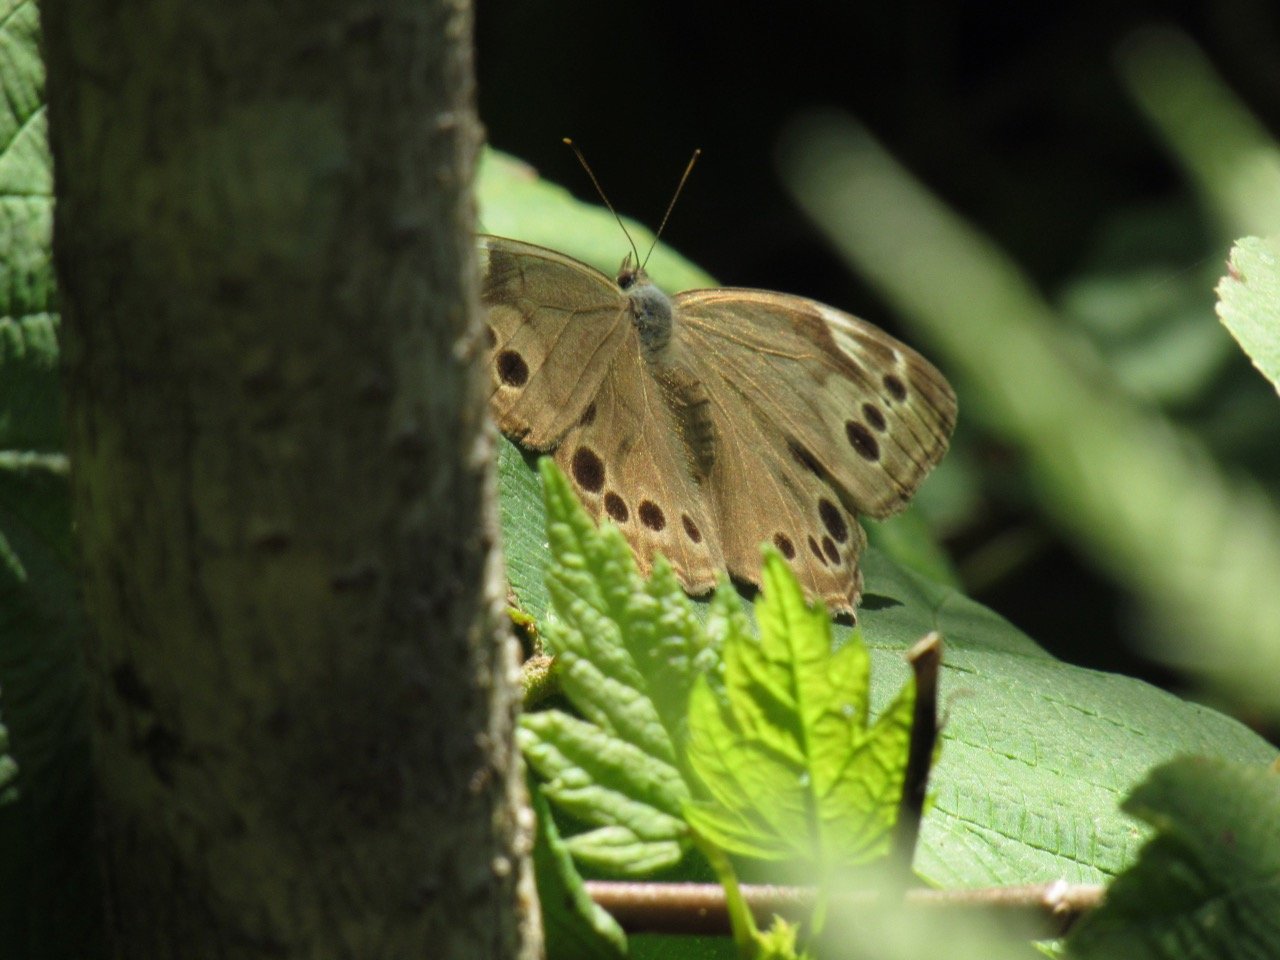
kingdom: Animalia
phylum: Arthropoda
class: Insecta
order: Lepidoptera
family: Nymphalidae
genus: Lethe
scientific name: Lethe anthedon
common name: Northern Pearly-Eye
